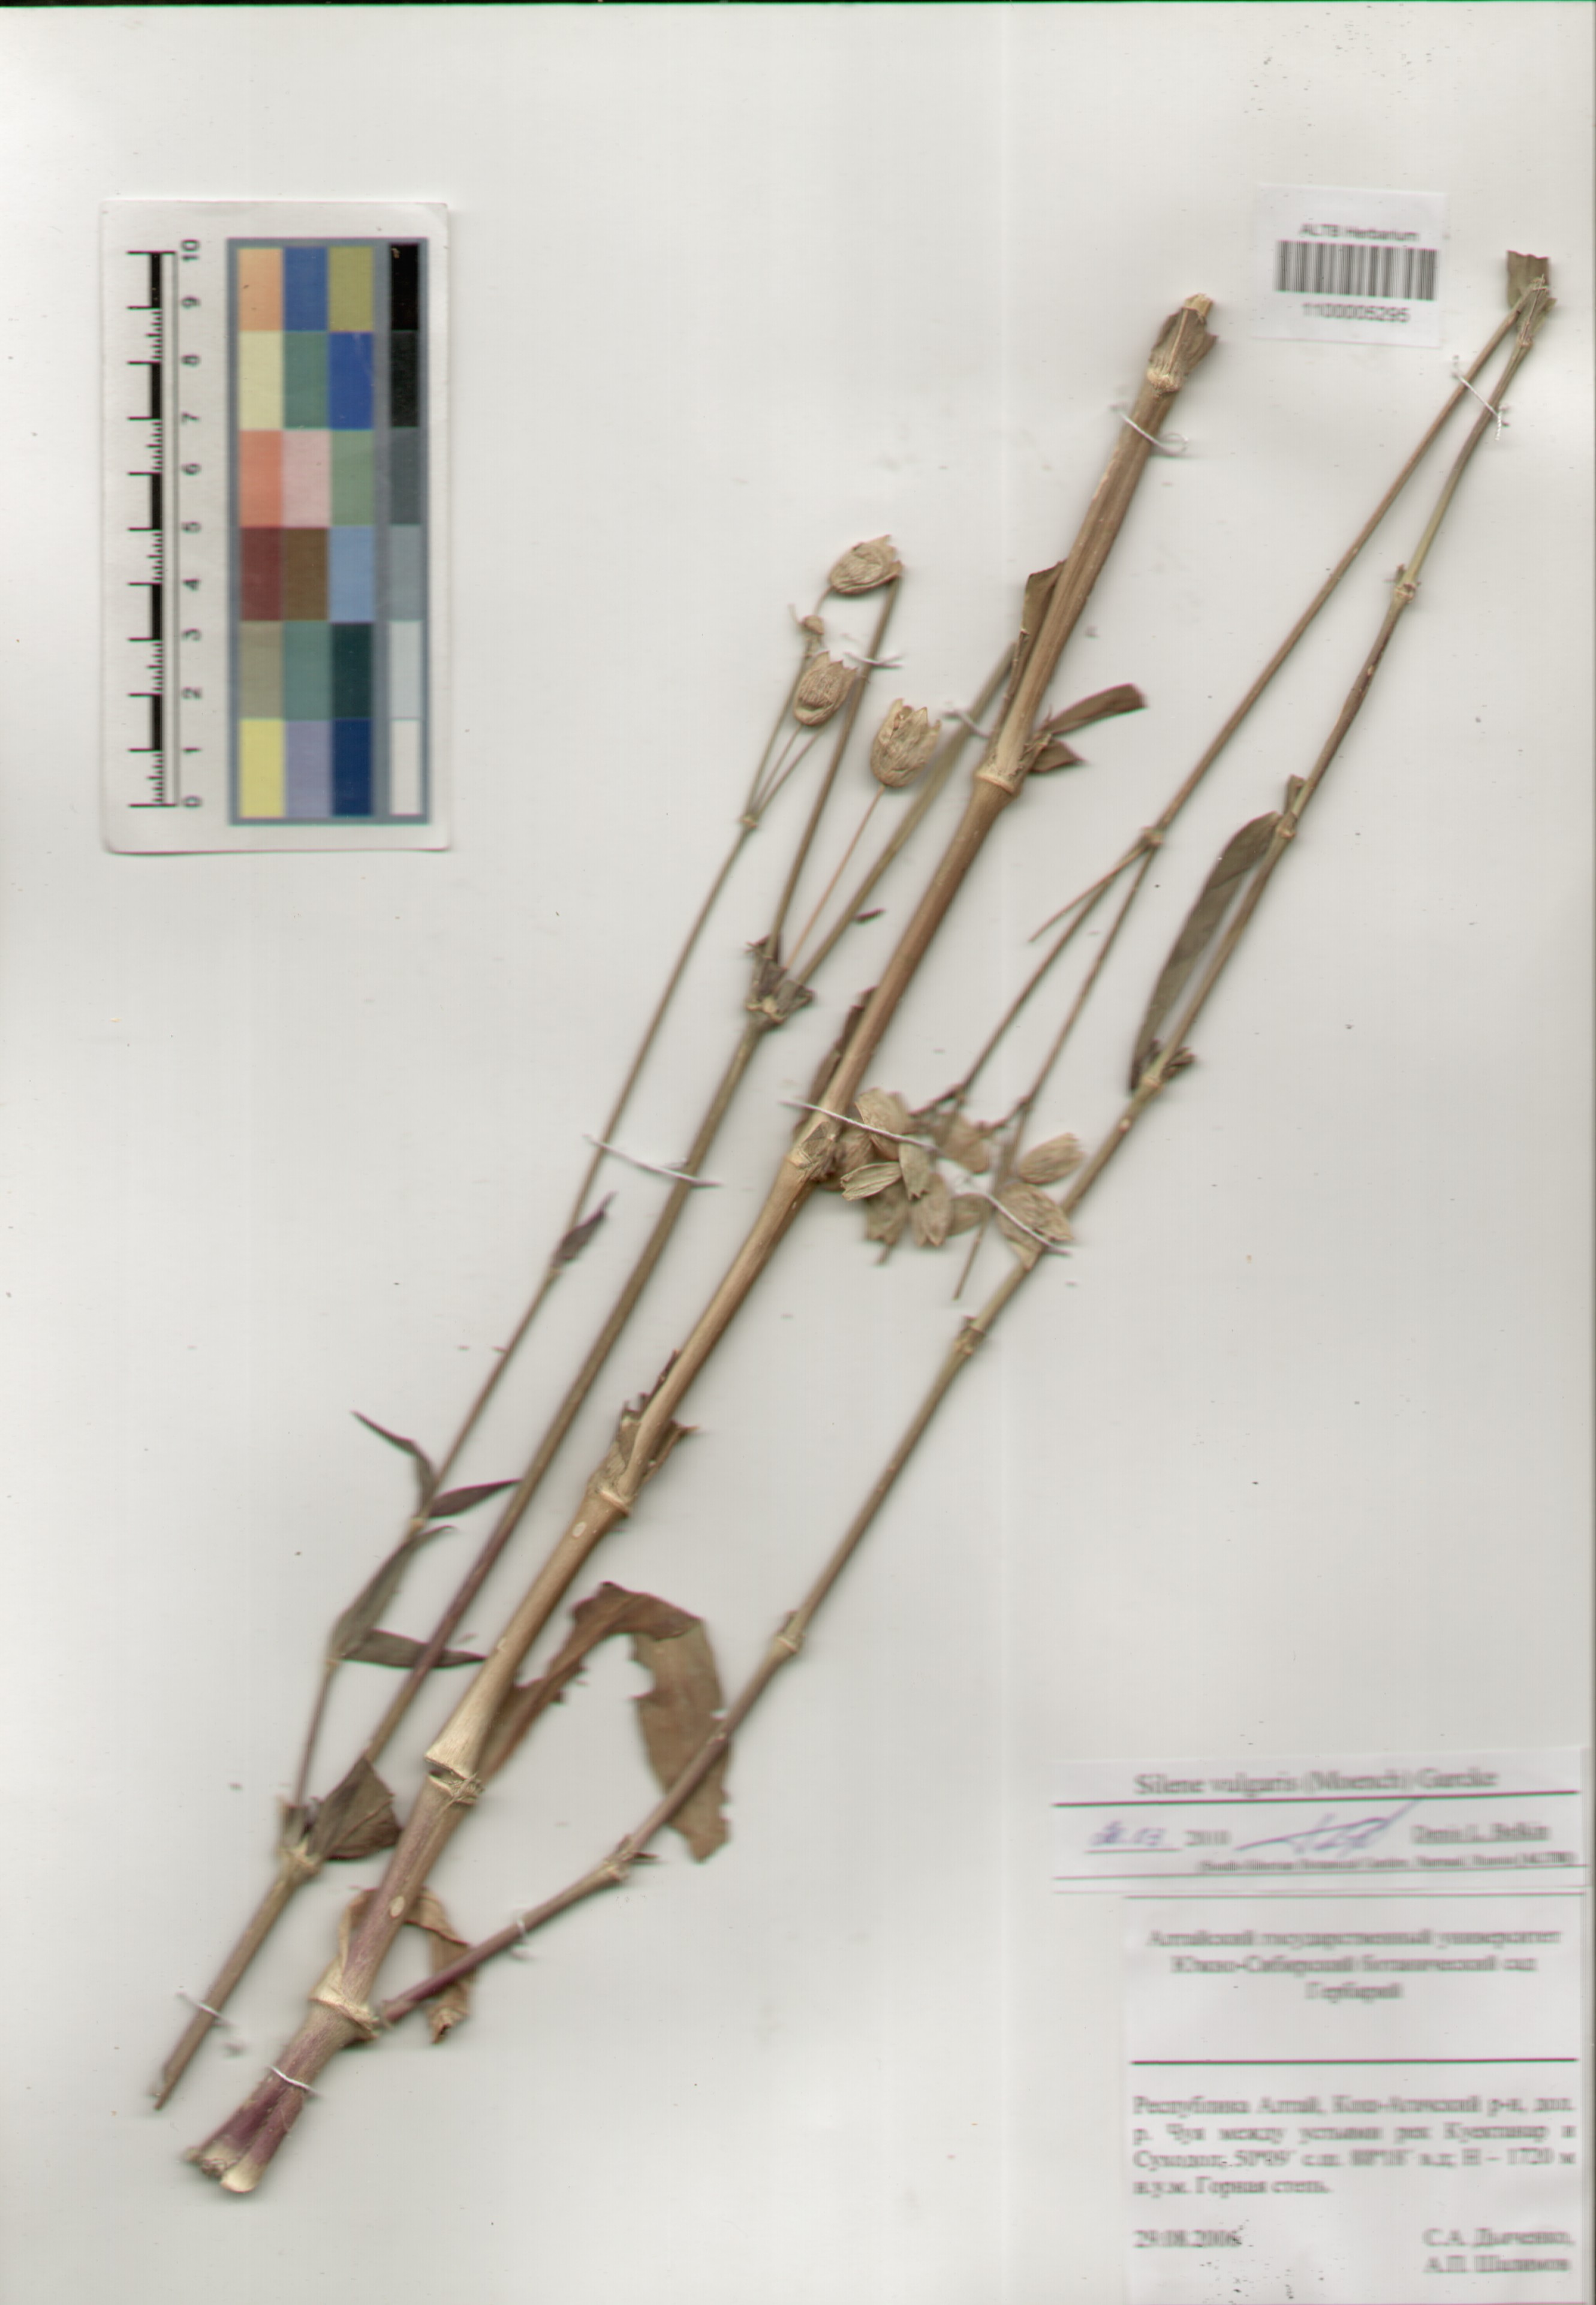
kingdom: Plantae
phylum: Tracheophyta
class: Magnoliopsida
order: Caryophyllales
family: Caryophyllaceae
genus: Silene
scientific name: Silene vulgaris
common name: Bladder campion
